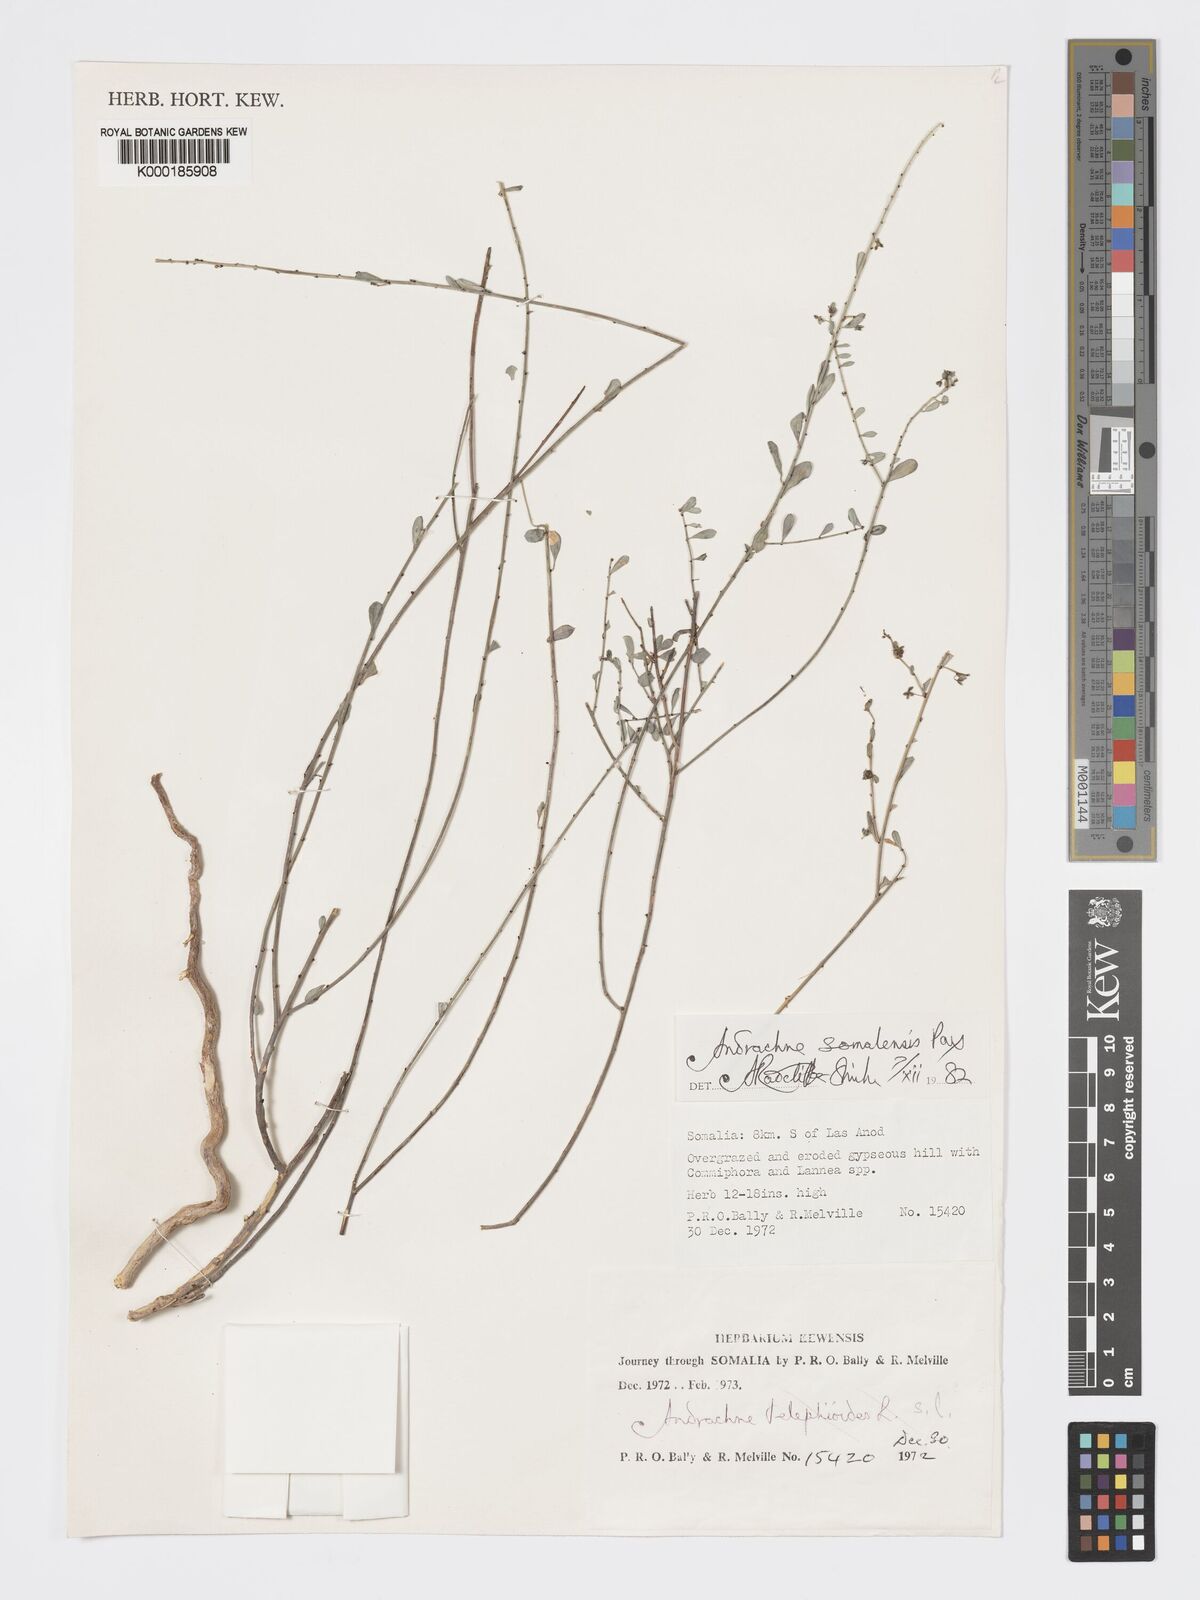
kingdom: Plantae
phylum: Tracheophyta
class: Magnoliopsida
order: Malpighiales
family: Phyllanthaceae
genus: Andrachne
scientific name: Andrachne schweinfurthii
